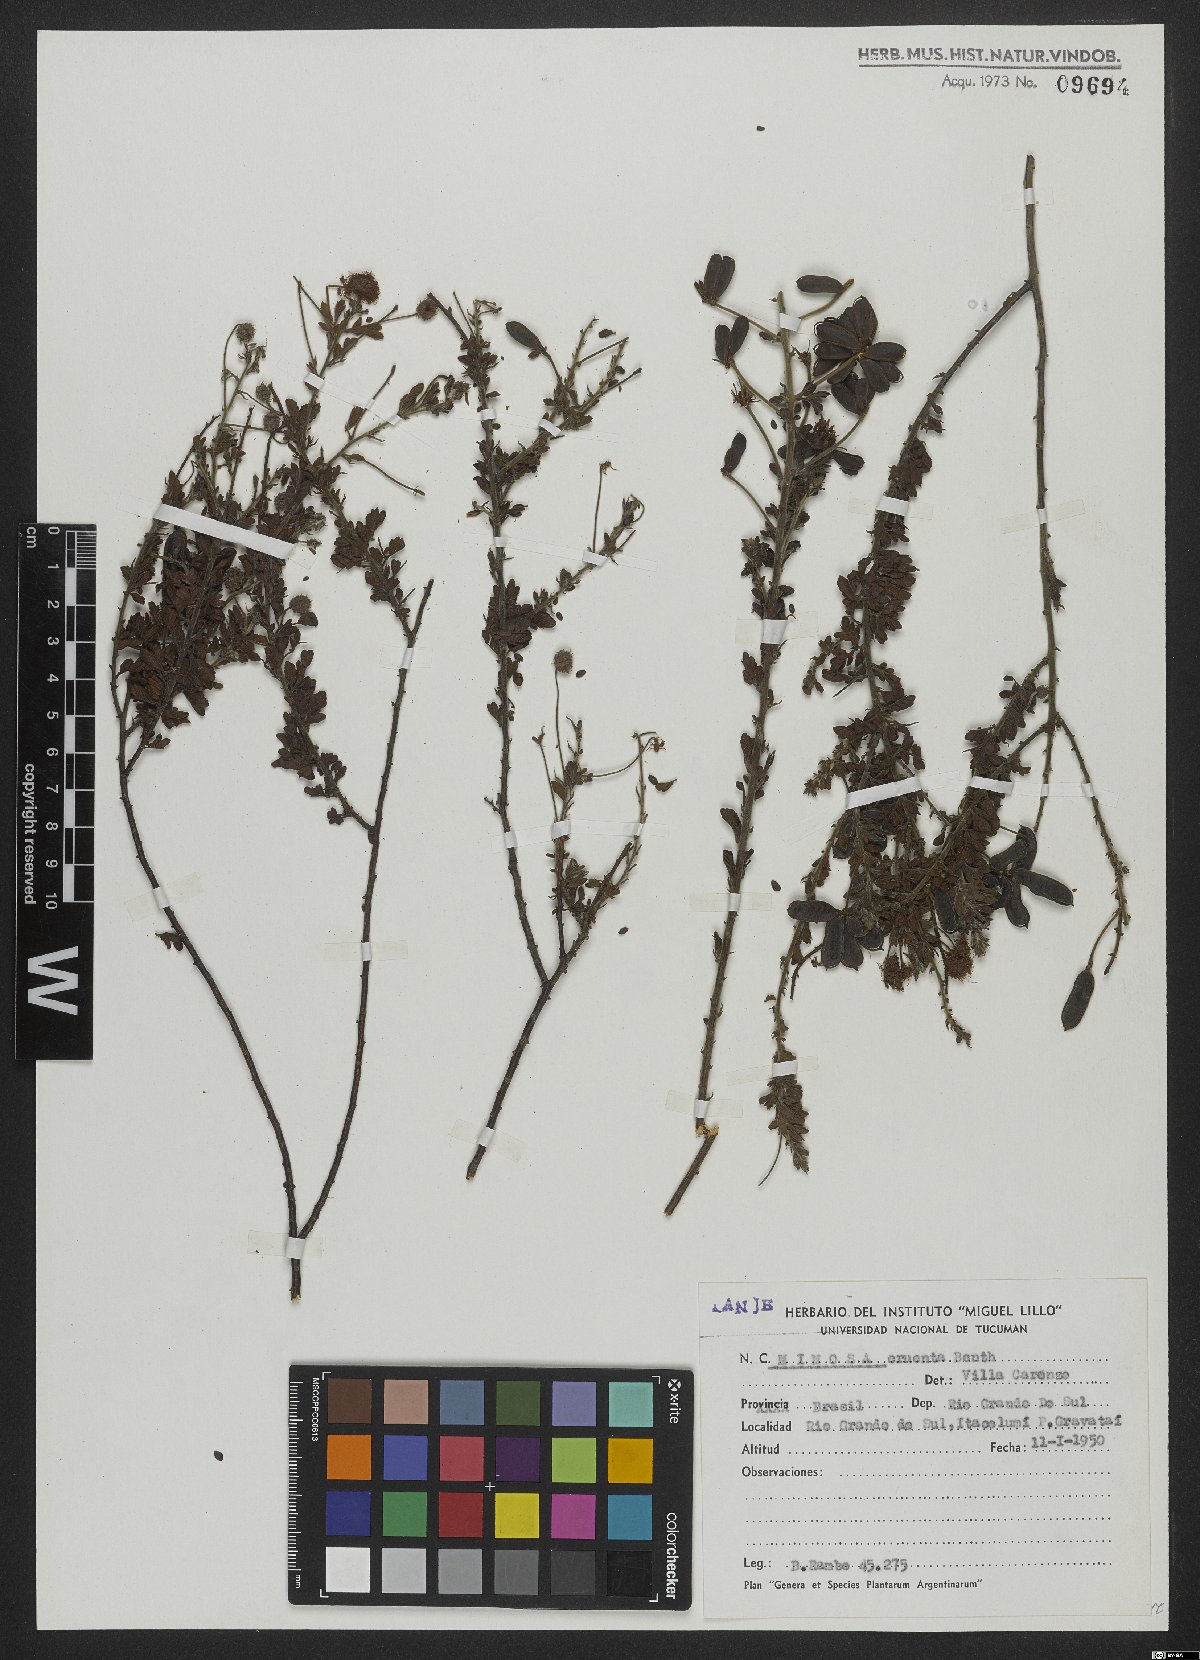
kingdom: Plantae
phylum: Tracheophyta
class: Magnoliopsida
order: Fabales
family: Fabaceae
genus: Mimosa
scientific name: Mimosa cruenta
